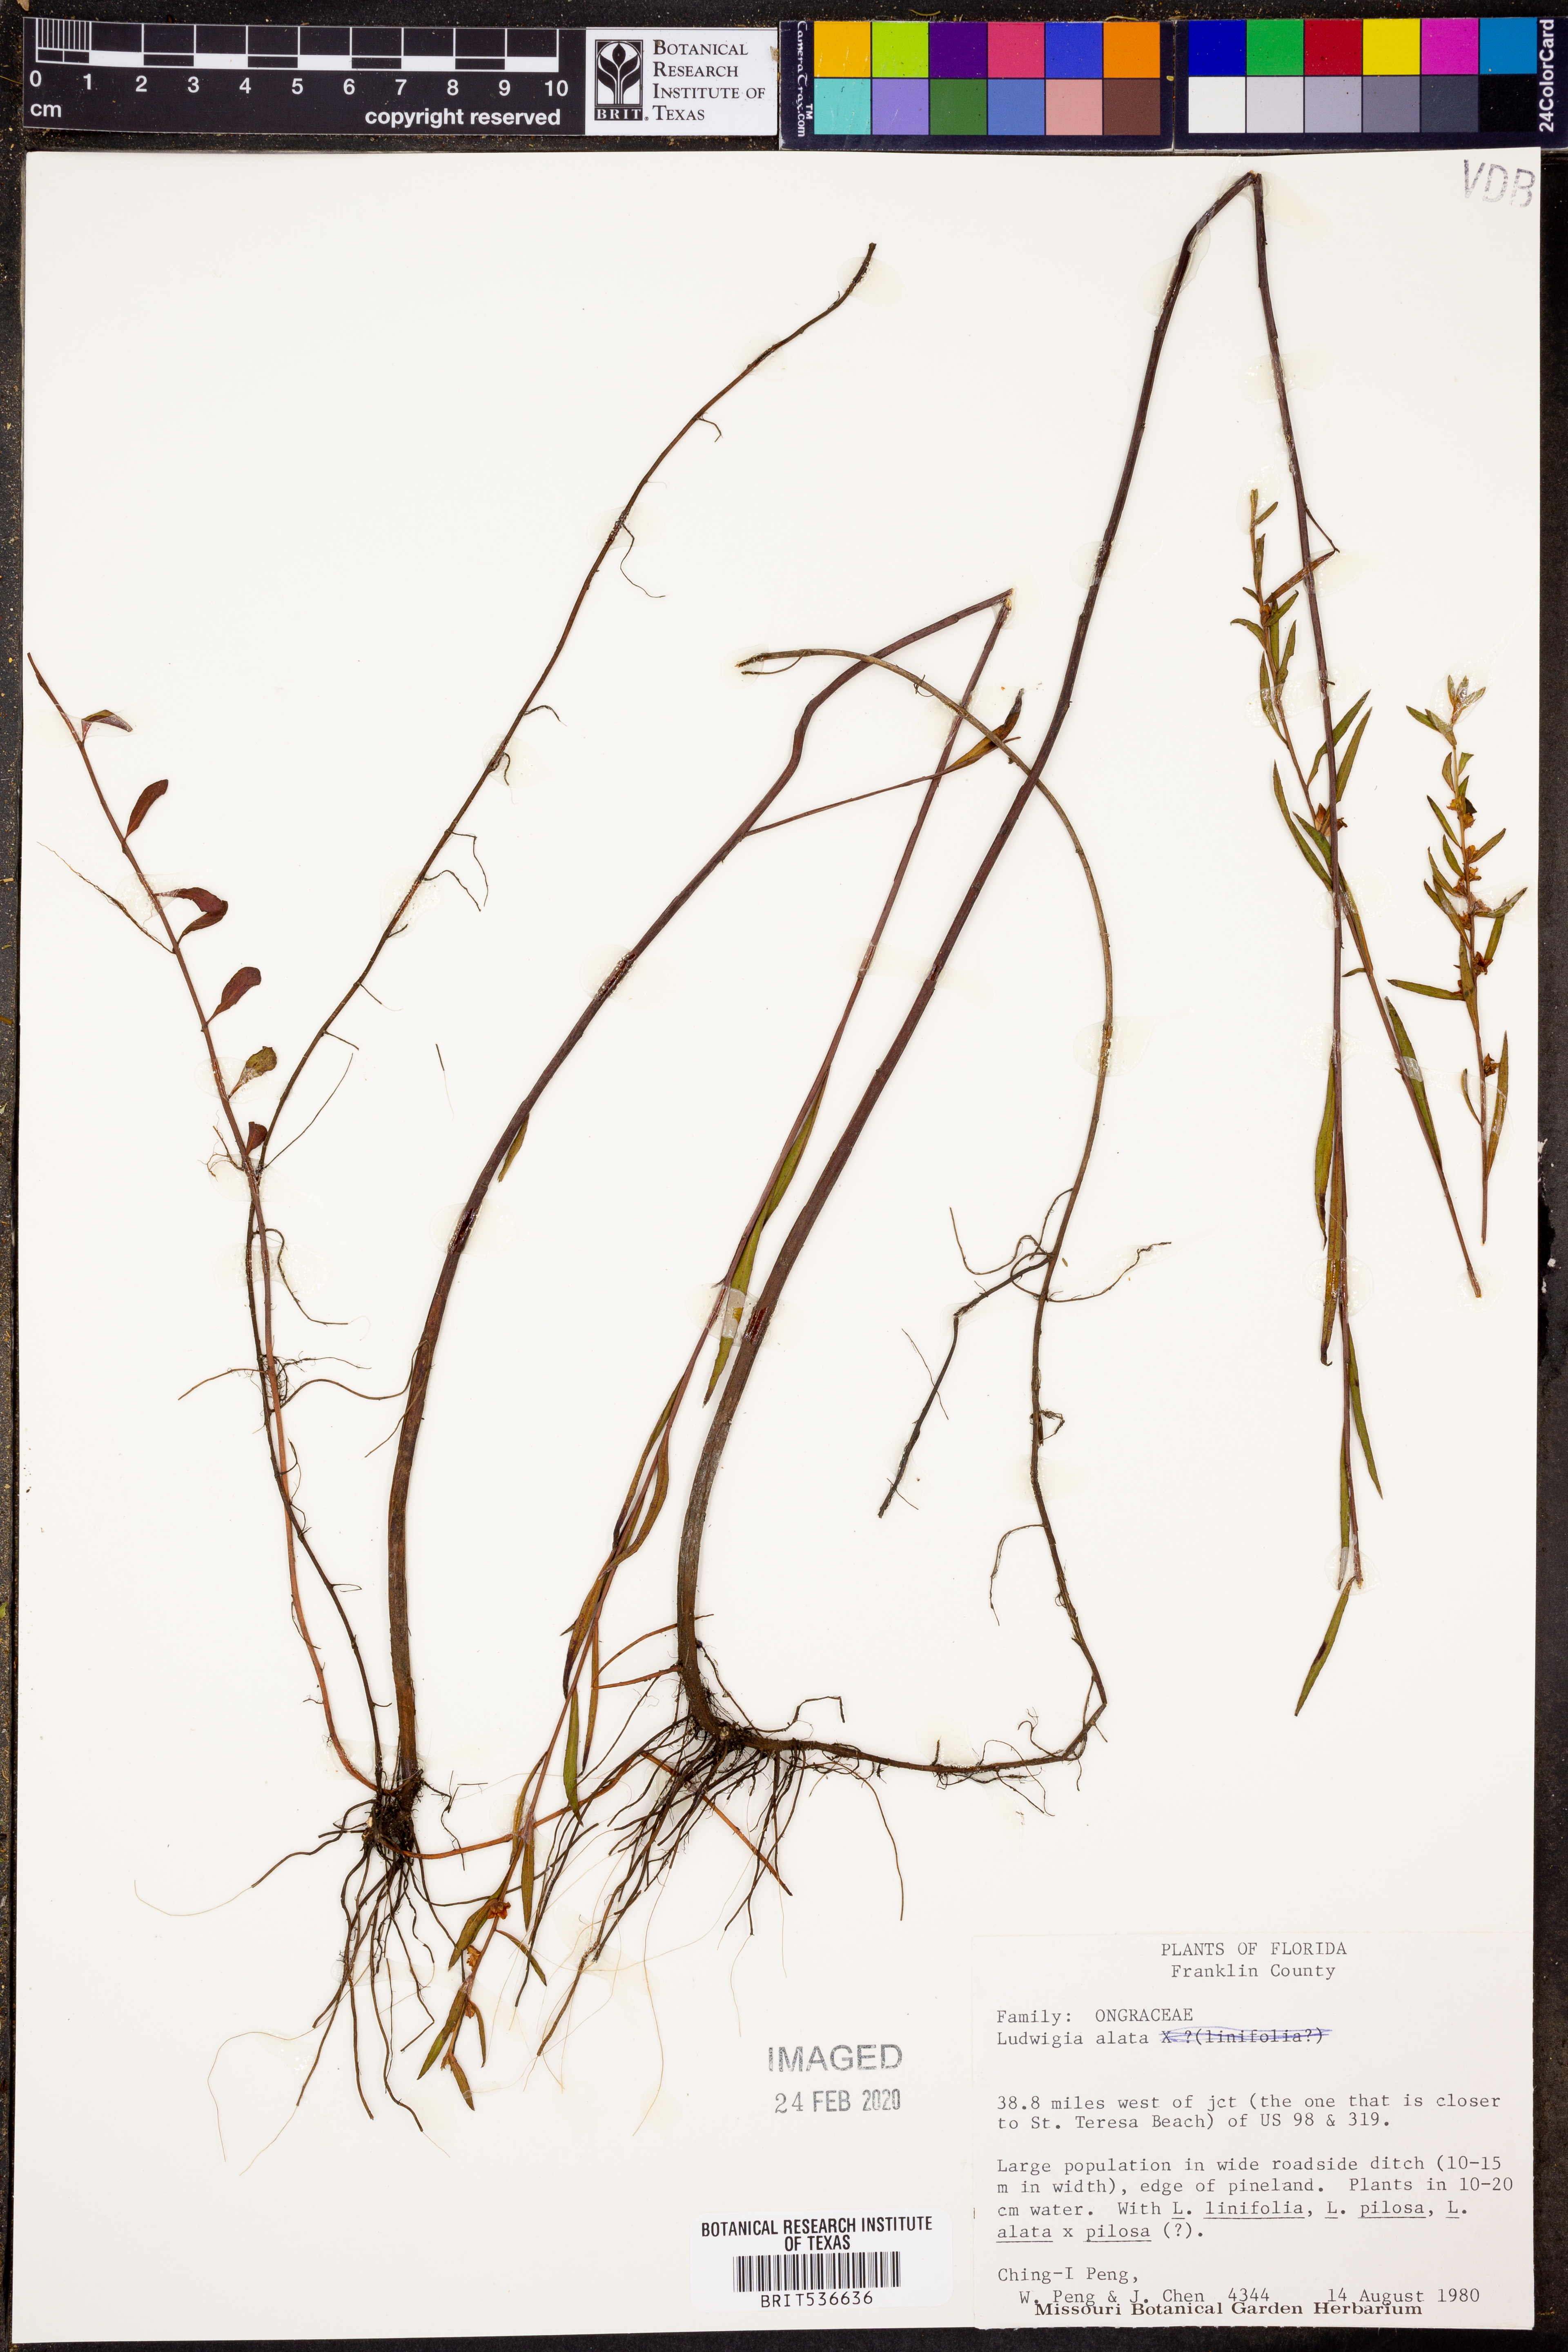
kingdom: Plantae
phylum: Tracheophyta
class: Magnoliopsida
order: Myrtales
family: Onagraceae
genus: Ludwigia
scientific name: Ludwigia alata
